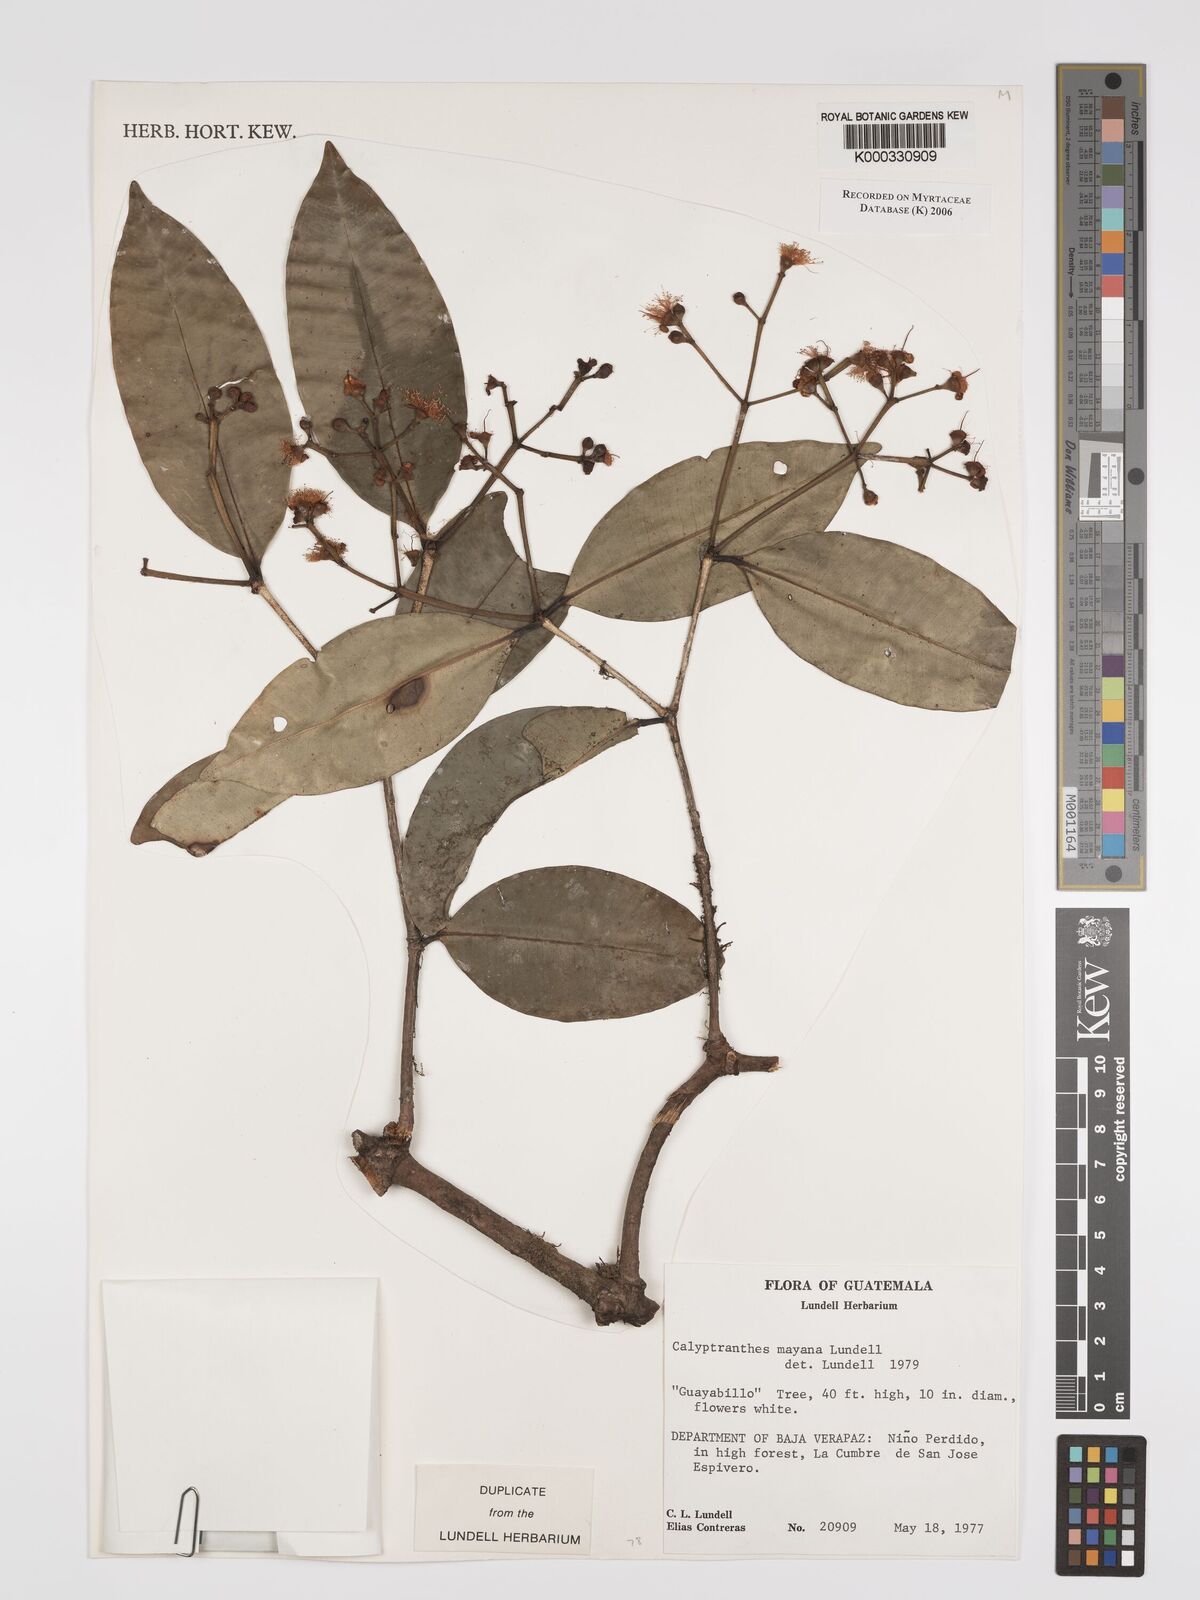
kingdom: Plantae
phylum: Tracheophyta
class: Magnoliopsida
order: Myrtales
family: Myrtaceae
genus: Myrcia
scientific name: Myrcia mayana
